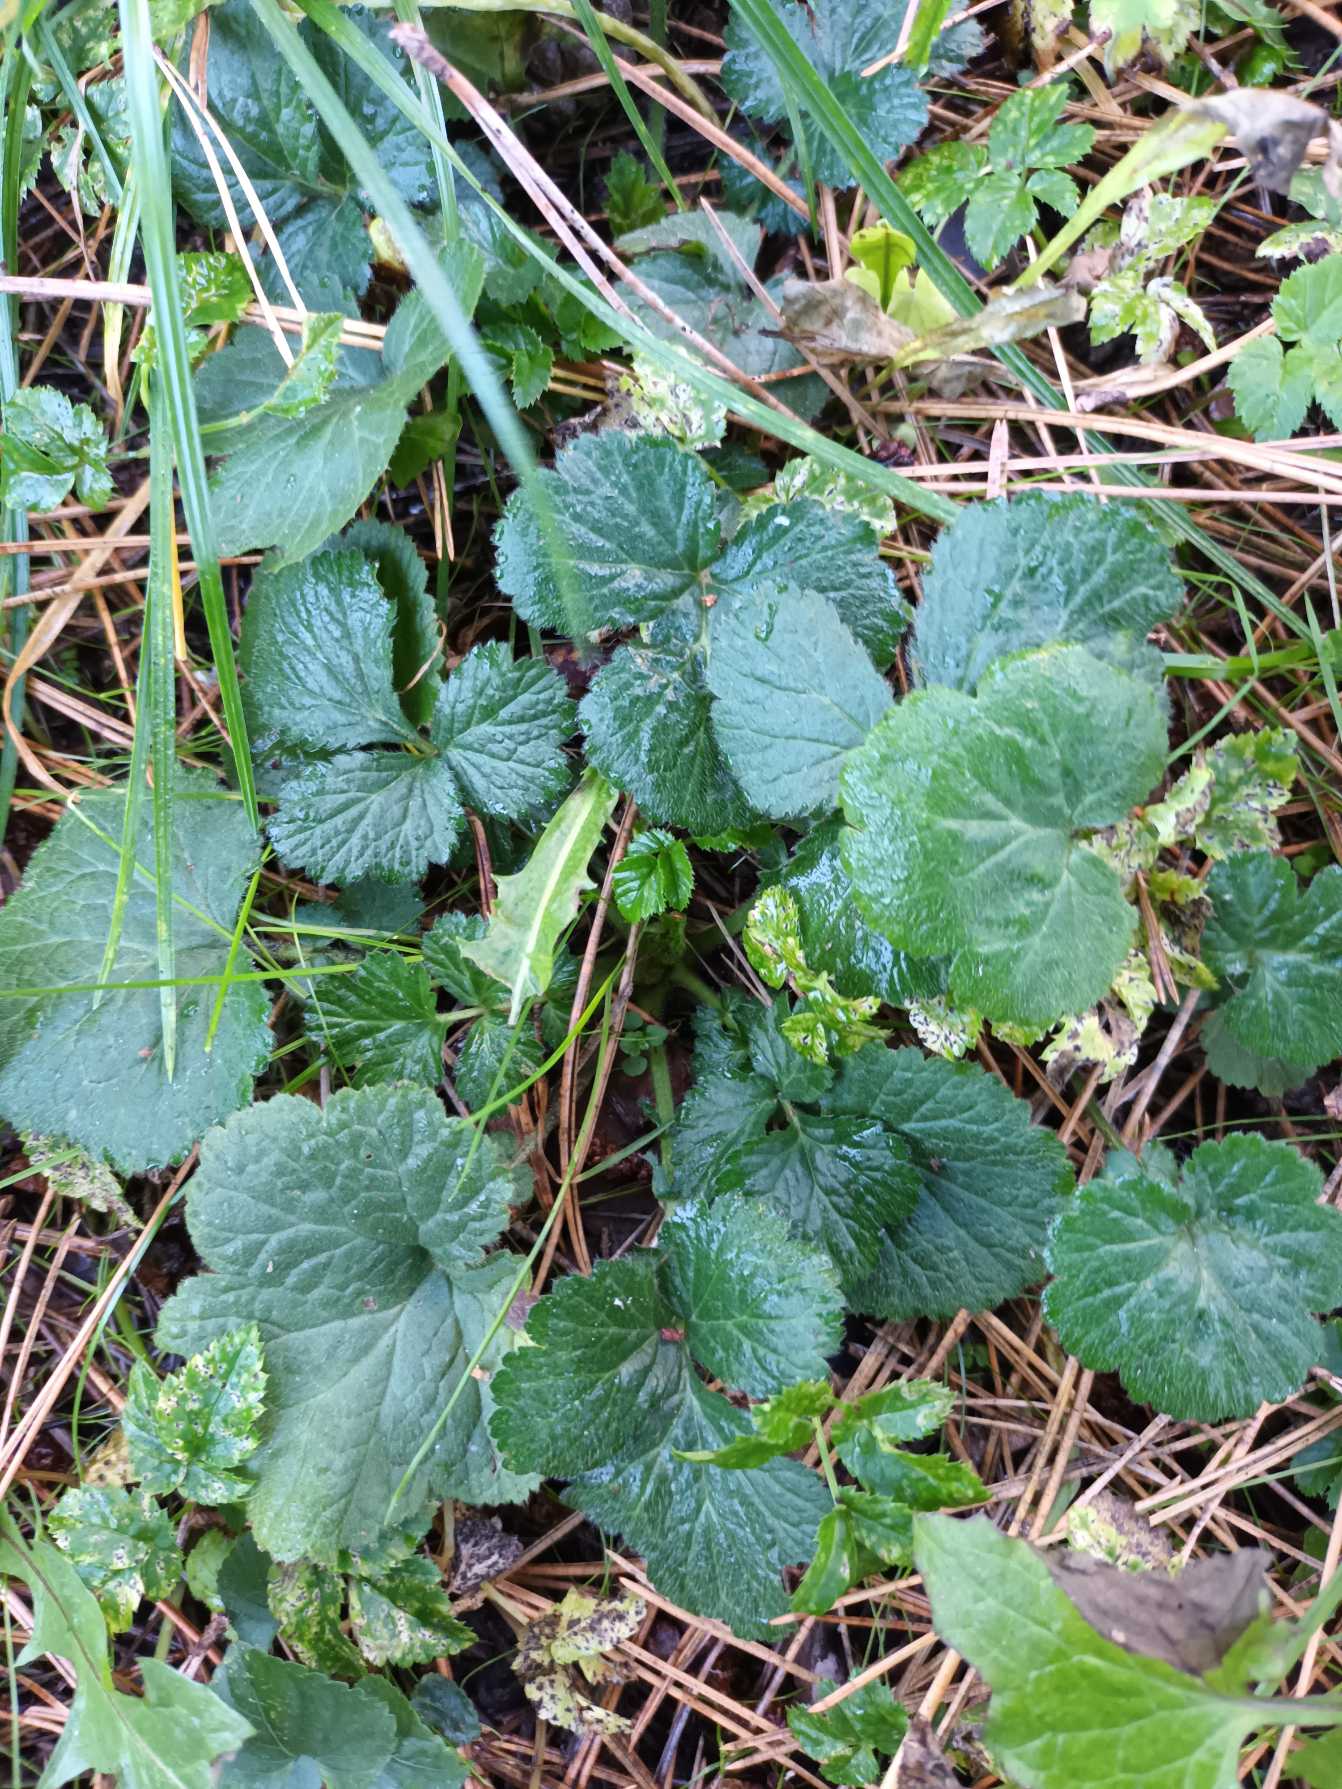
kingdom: Plantae
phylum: Tracheophyta
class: Magnoliopsida
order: Rosales
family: Rosaceae
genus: Geum
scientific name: Geum urbanum
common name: Feber-nellikerod
